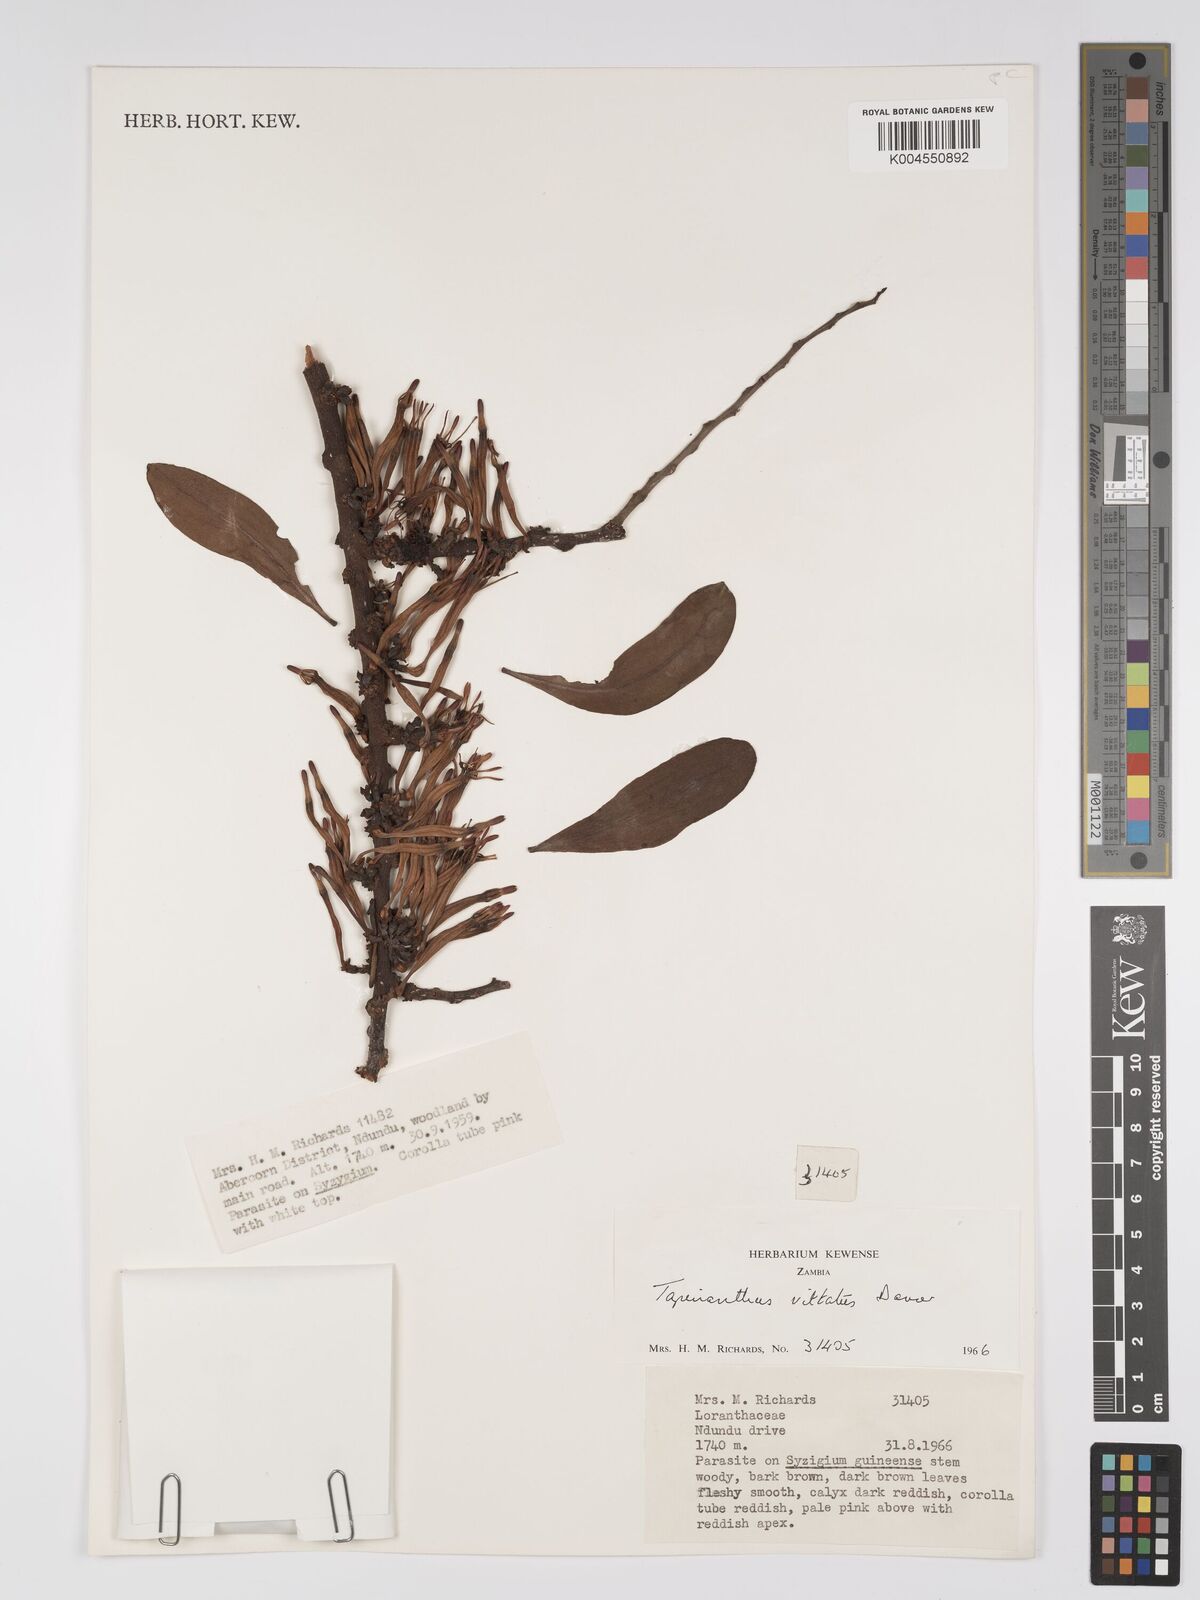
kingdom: Plantae
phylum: Tracheophyta
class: Magnoliopsida
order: Santalales
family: Loranthaceae
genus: Agelanthus
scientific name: Agelanthus zizyphifolius
